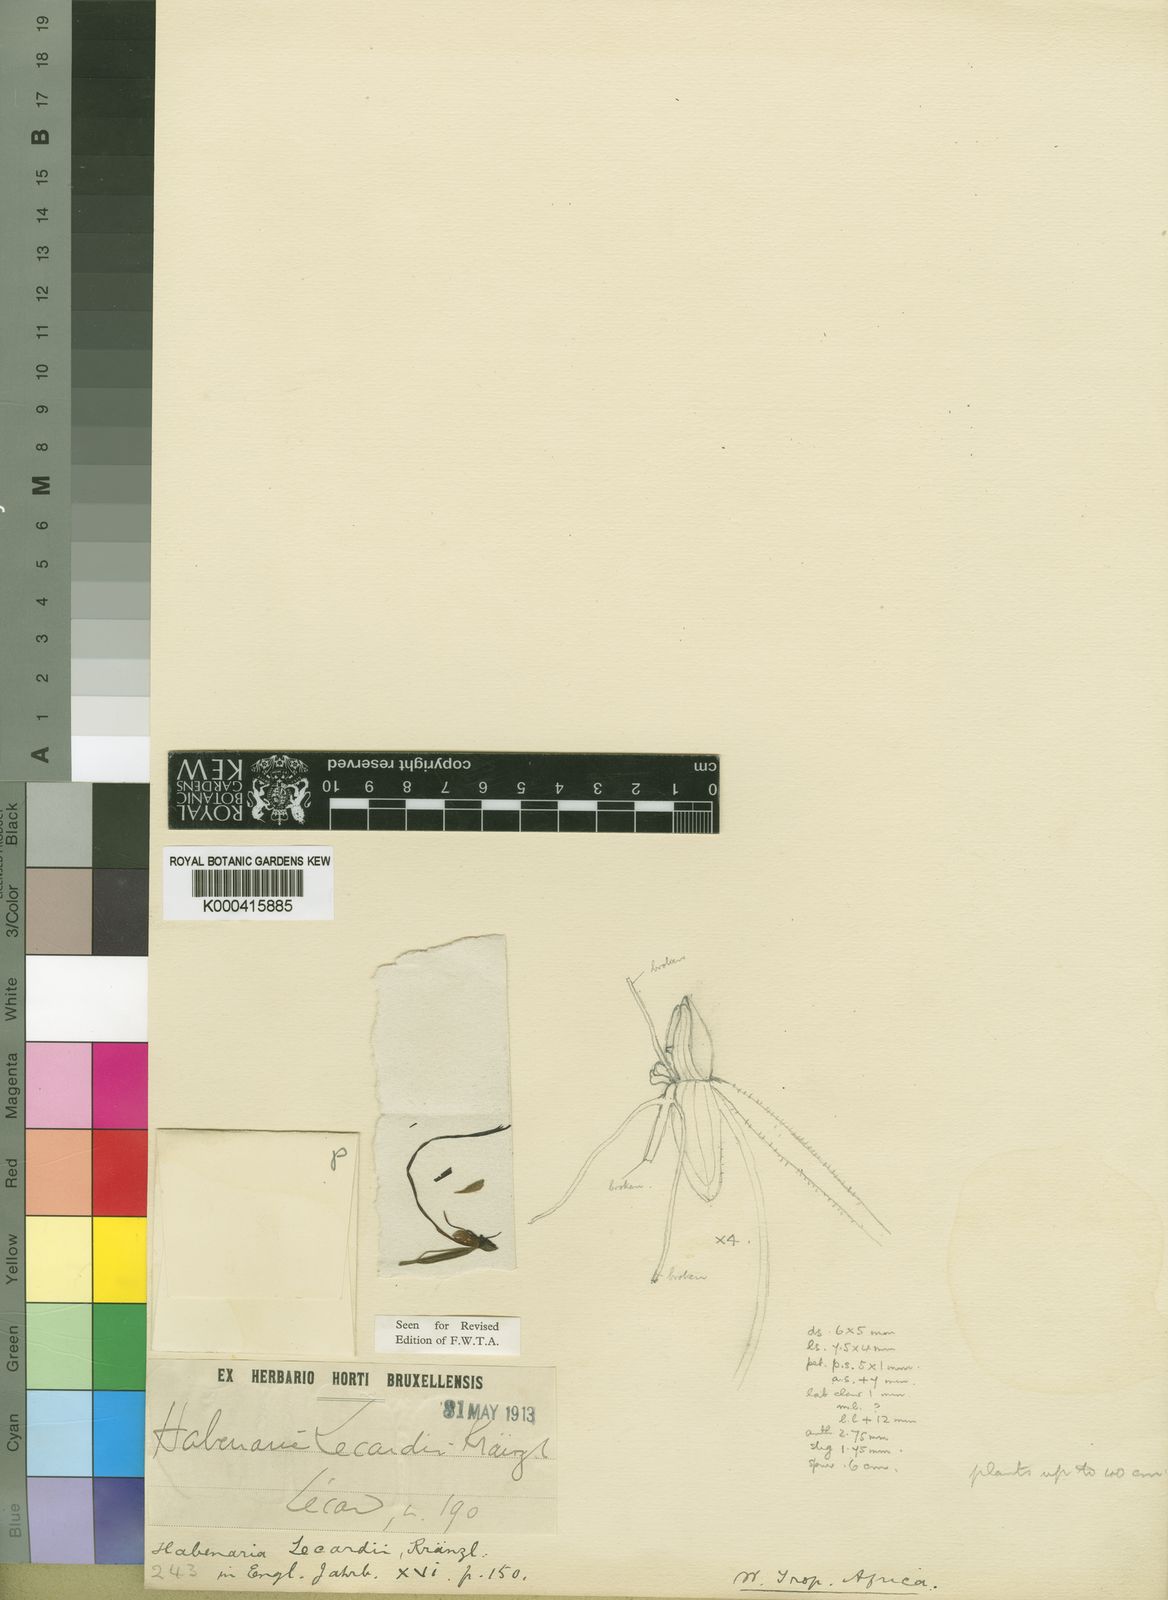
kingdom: Plantae
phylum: Tracheophyta
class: Liliopsida
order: Asparagales
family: Orchidaceae
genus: Habenaria
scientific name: Habenaria lecardii
